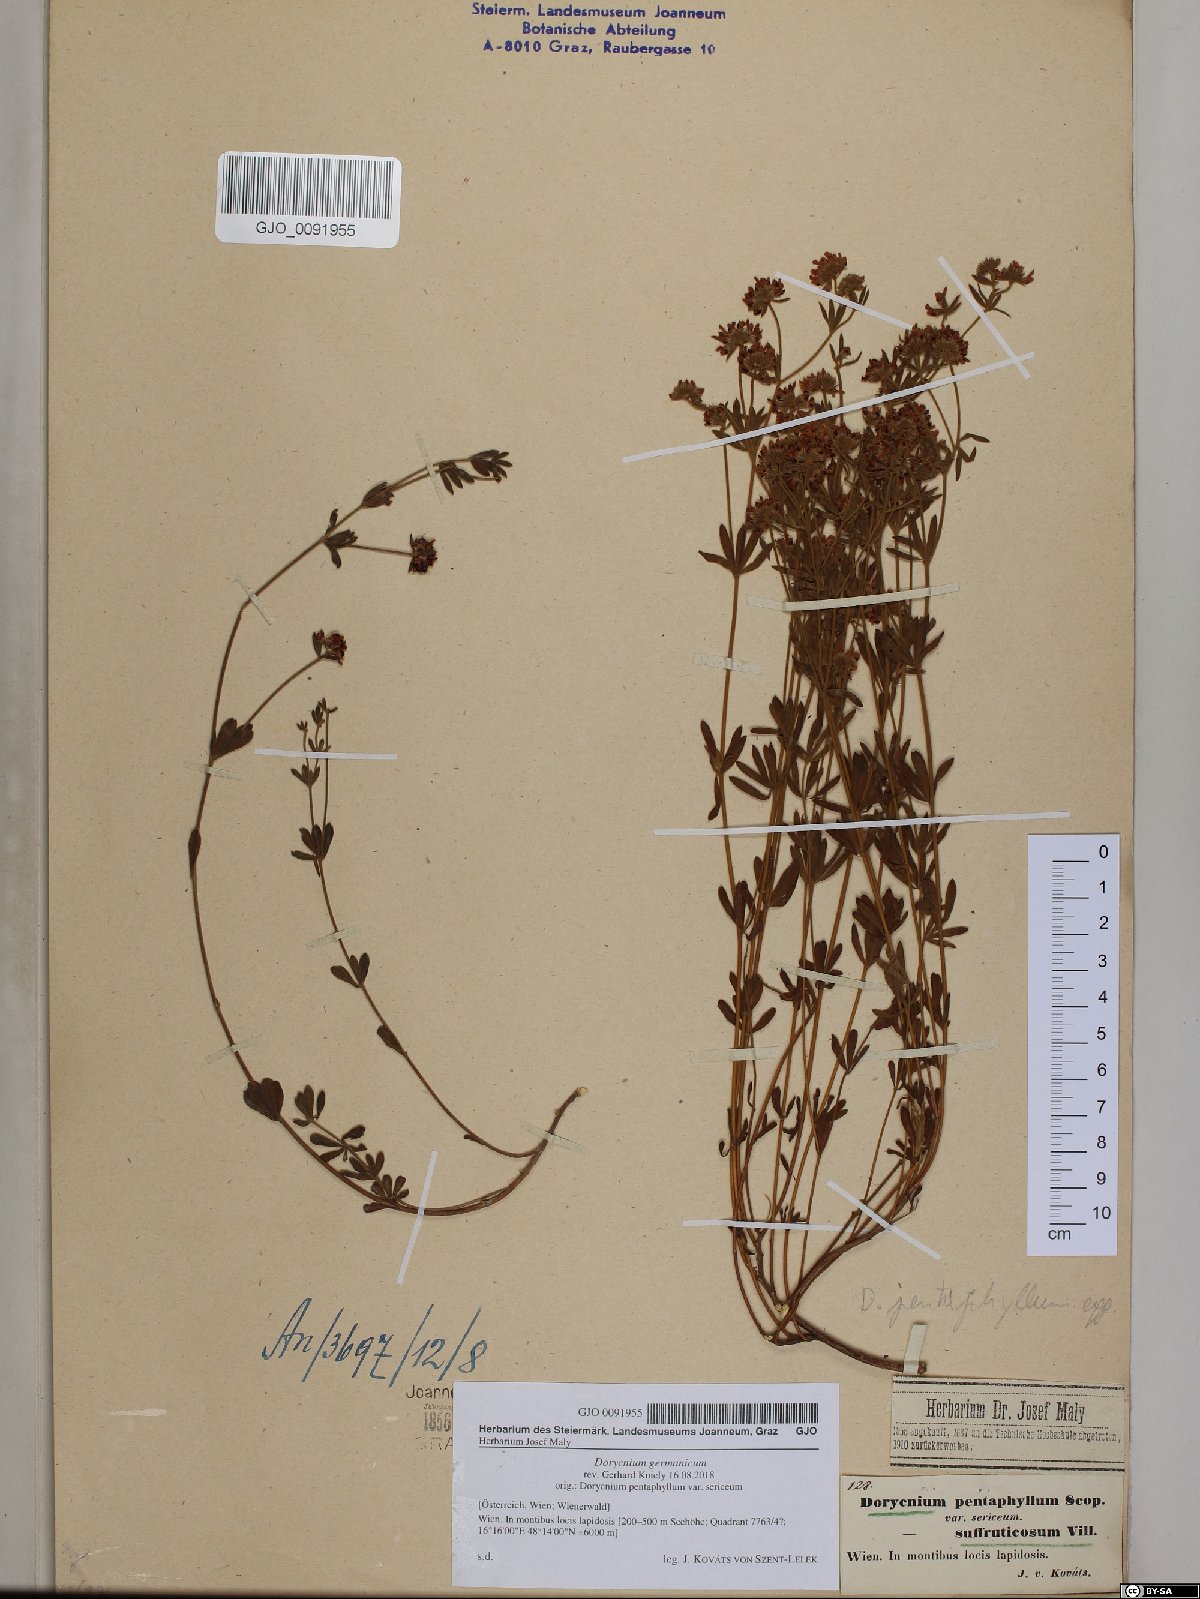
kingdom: Plantae
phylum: Tracheophyta
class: Magnoliopsida
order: Fabales
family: Fabaceae
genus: Lotus
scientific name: Lotus germanicus
